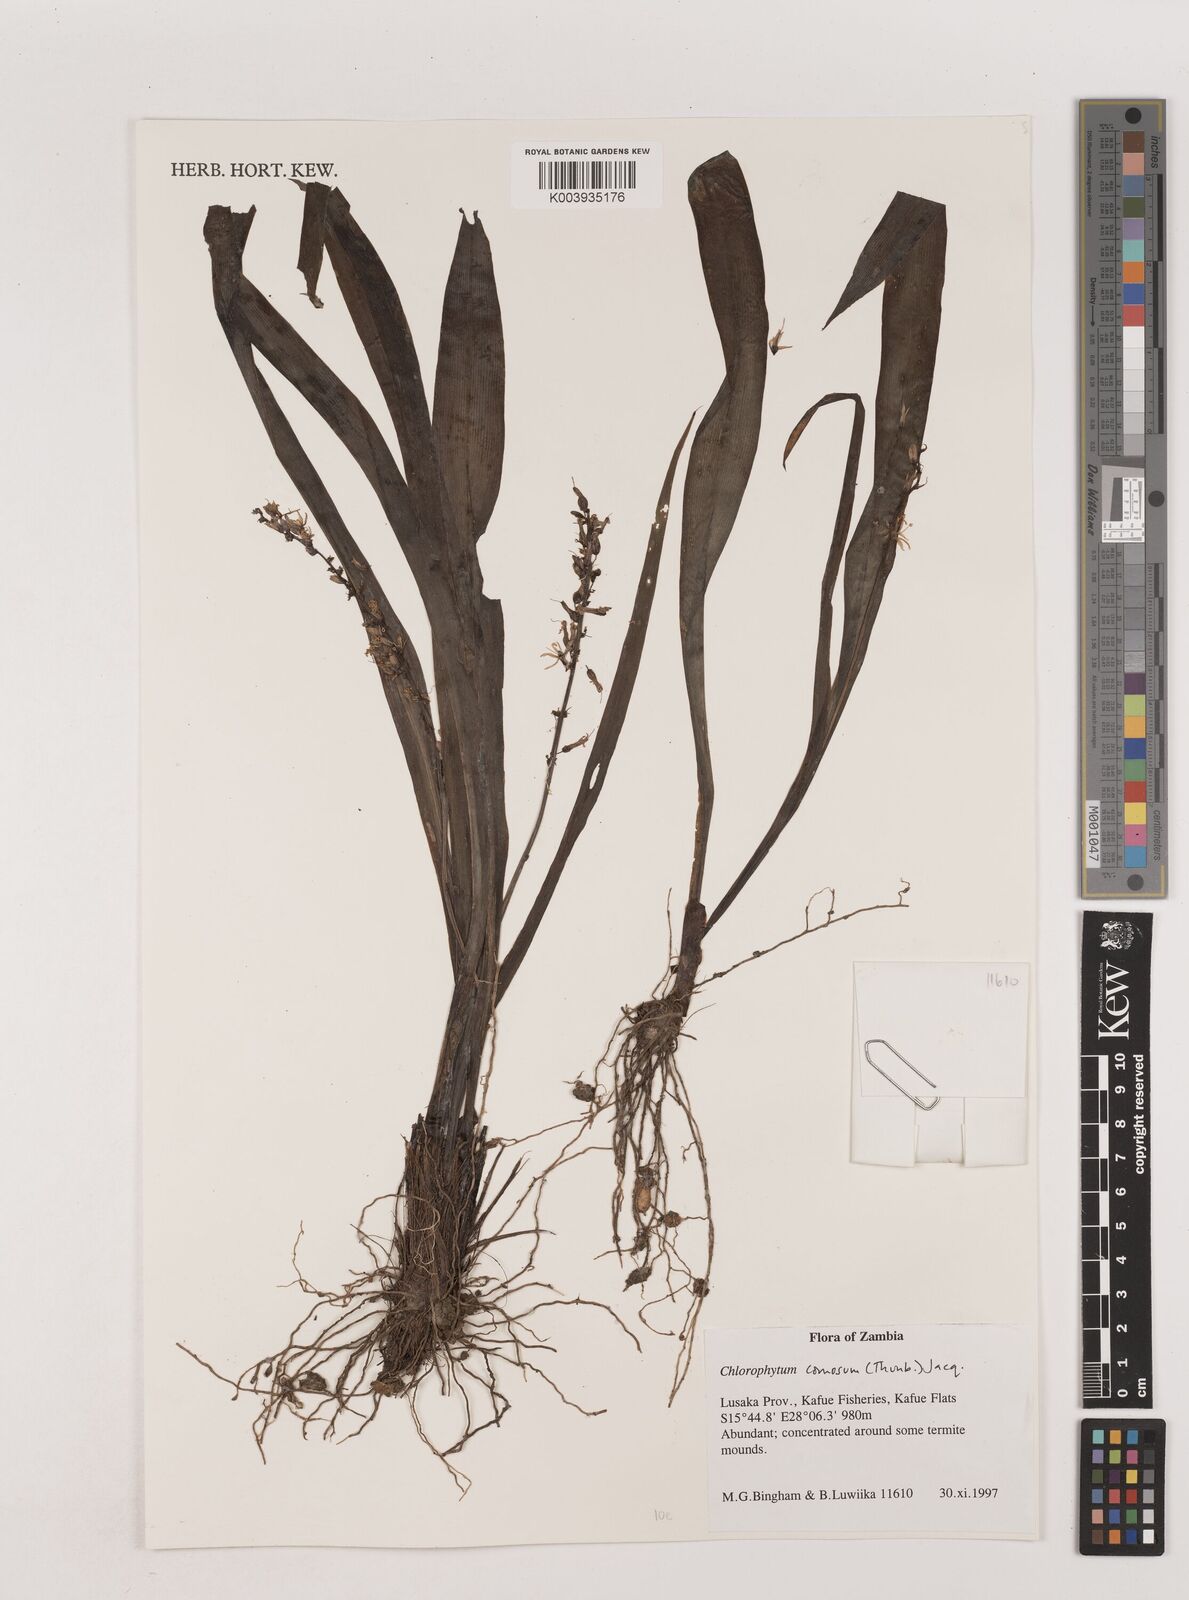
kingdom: Plantae
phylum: Tracheophyta
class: Liliopsida
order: Asparagales
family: Asparagaceae
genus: Chlorophytum
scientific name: Chlorophytum comosum
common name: Spider plant
